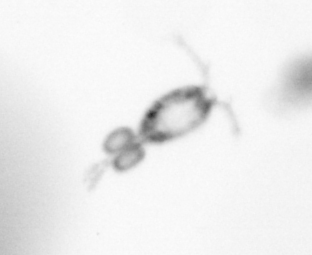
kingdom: Animalia
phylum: Arthropoda
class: Copepoda
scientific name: Copepoda
